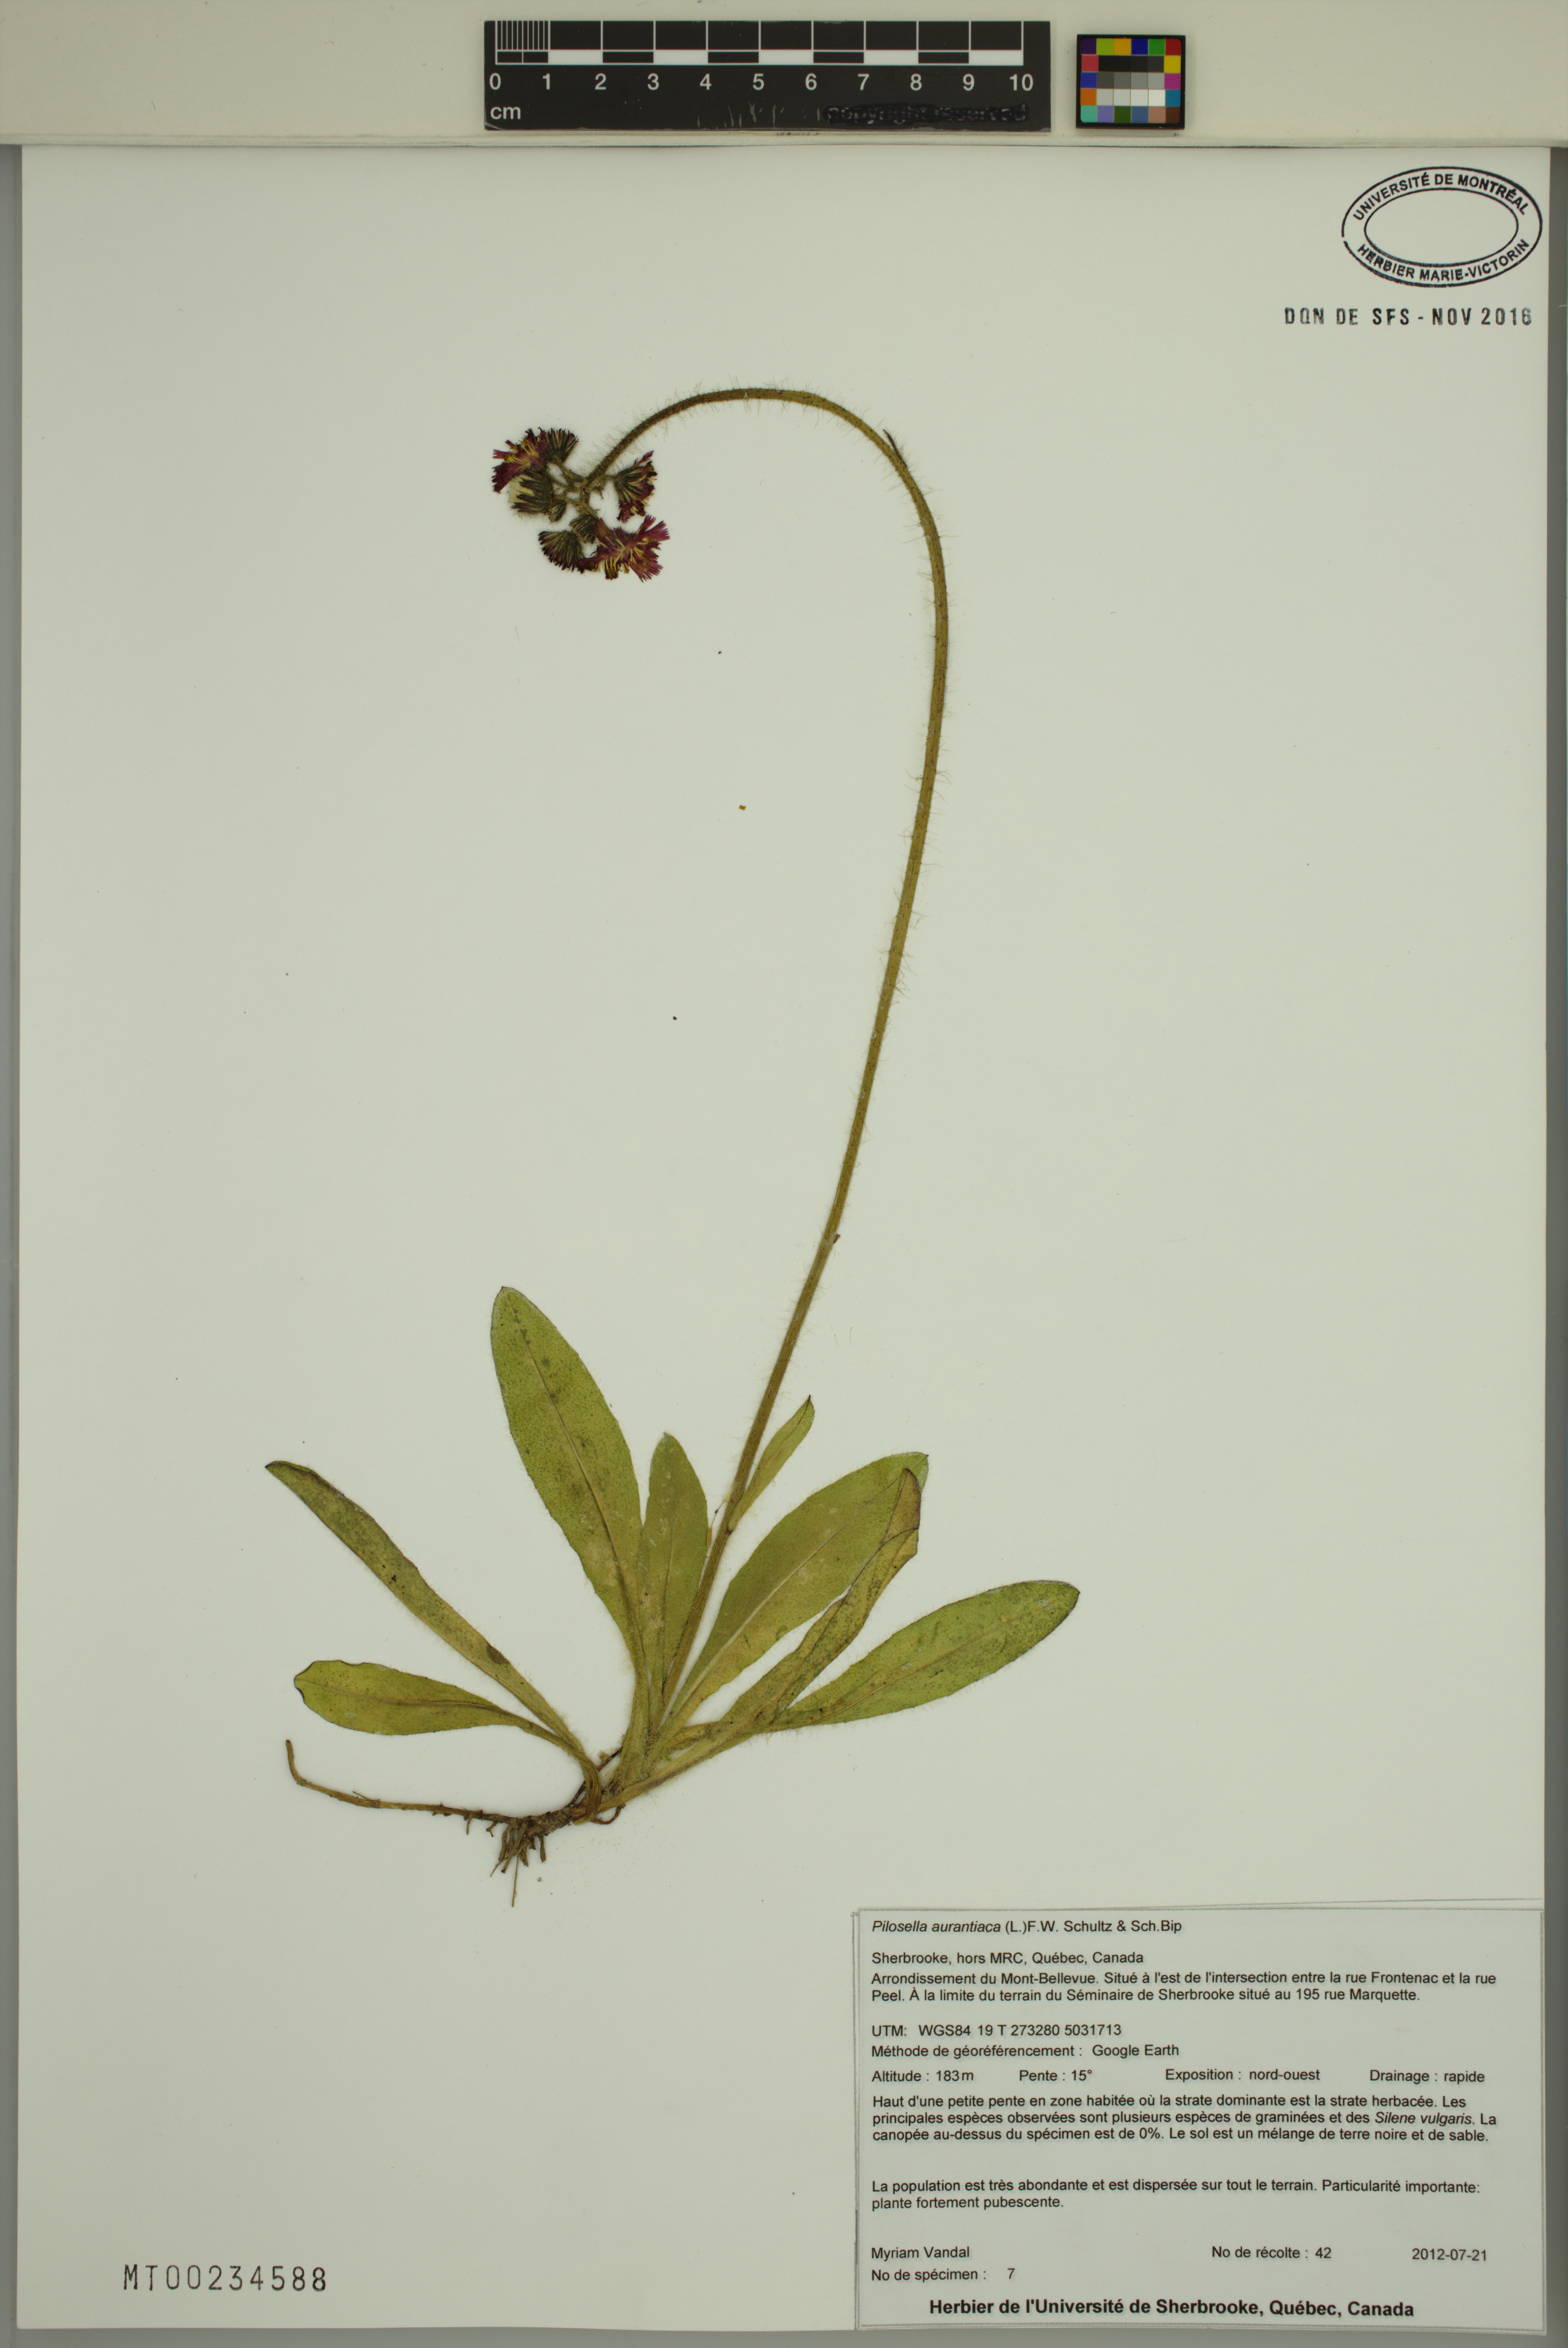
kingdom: Plantae
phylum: Tracheophyta
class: Magnoliopsida
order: Asterales
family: Asteraceae
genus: Pilosella
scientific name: Pilosella aurantiaca
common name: Fox-and-cubs
